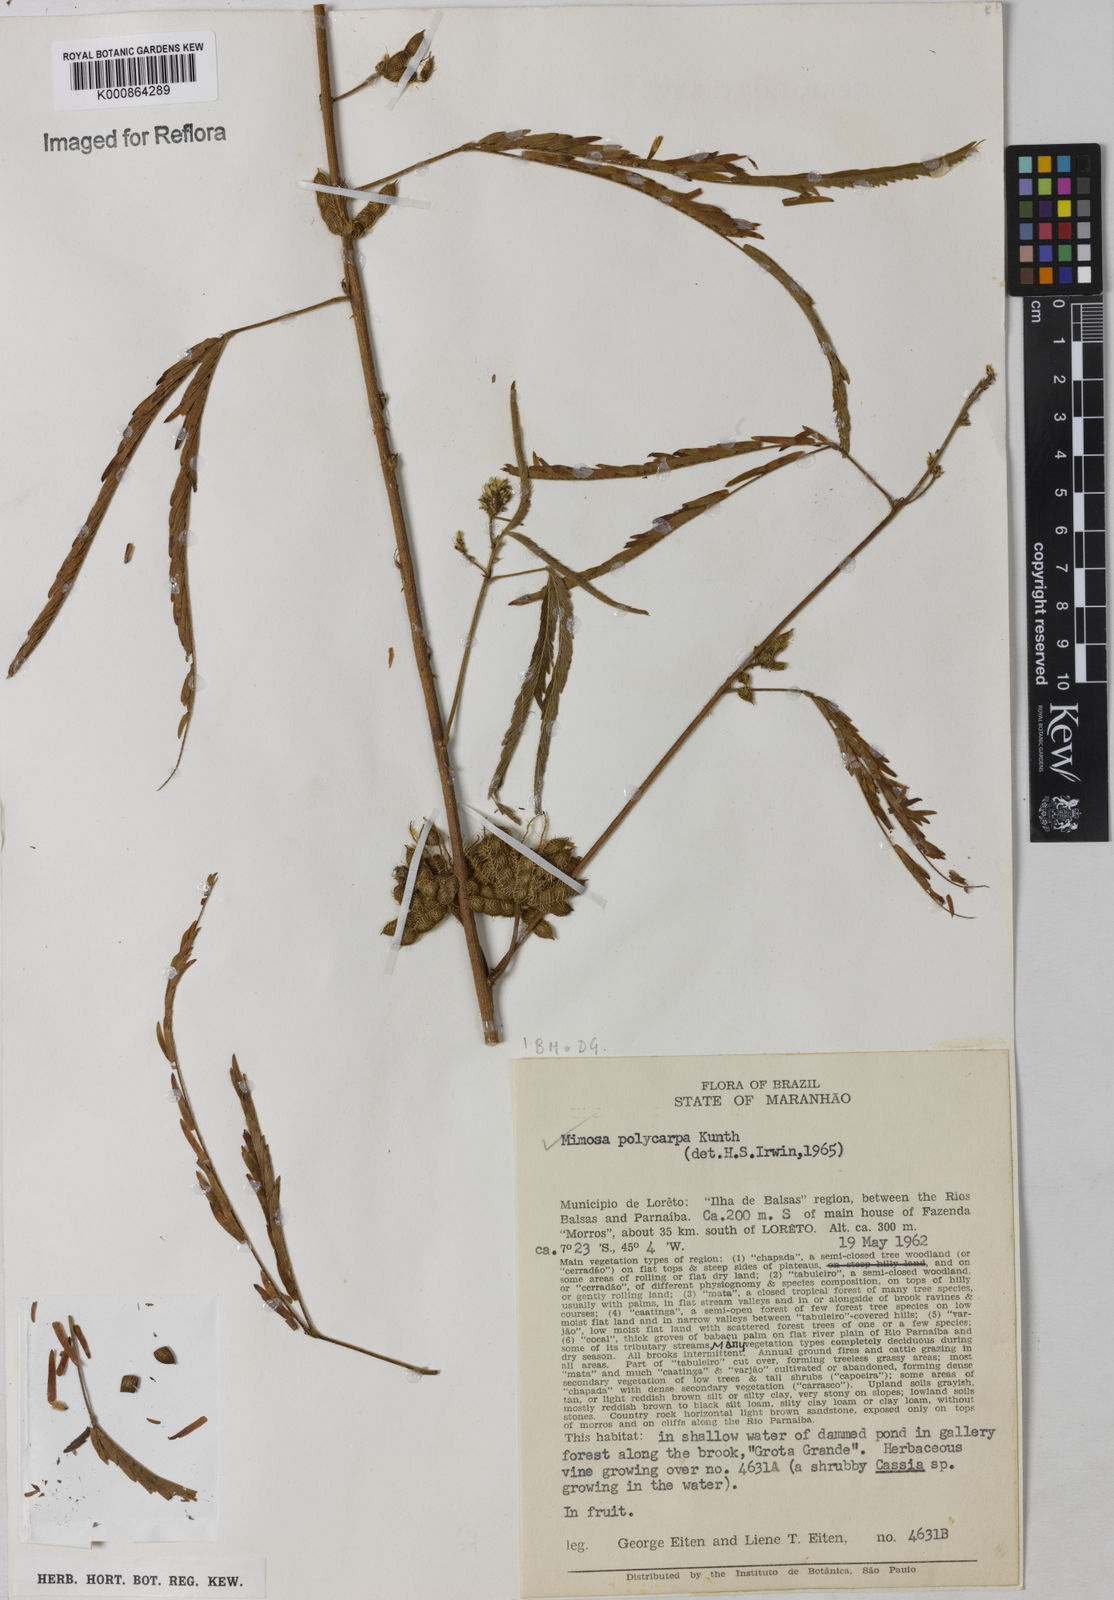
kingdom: Plantae
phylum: Tracheophyta
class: Magnoliopsida
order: Fabales
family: Fabaceae
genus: Mimosa
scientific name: Mimosa
